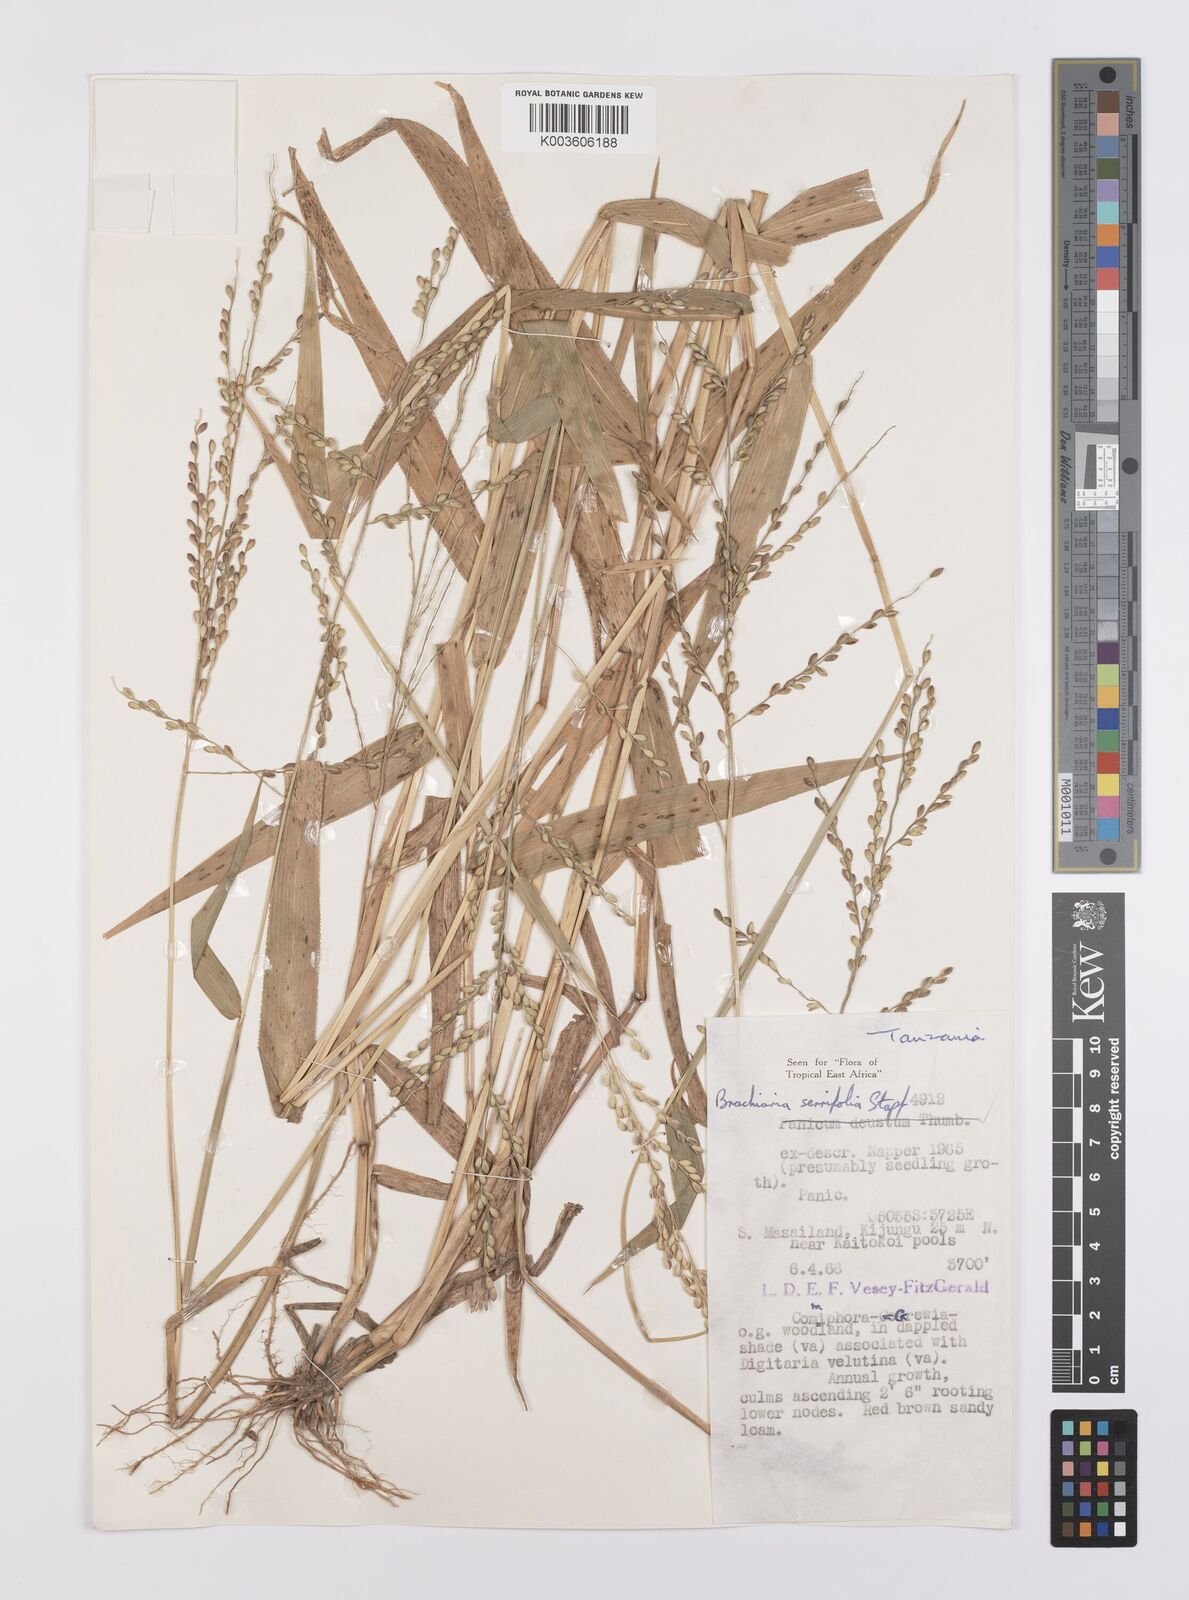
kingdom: Plantae
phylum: Tracheophyta
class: Liliopsida
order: Poales
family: Poaceae
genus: Urochloa
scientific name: Urochloa serrifolia
